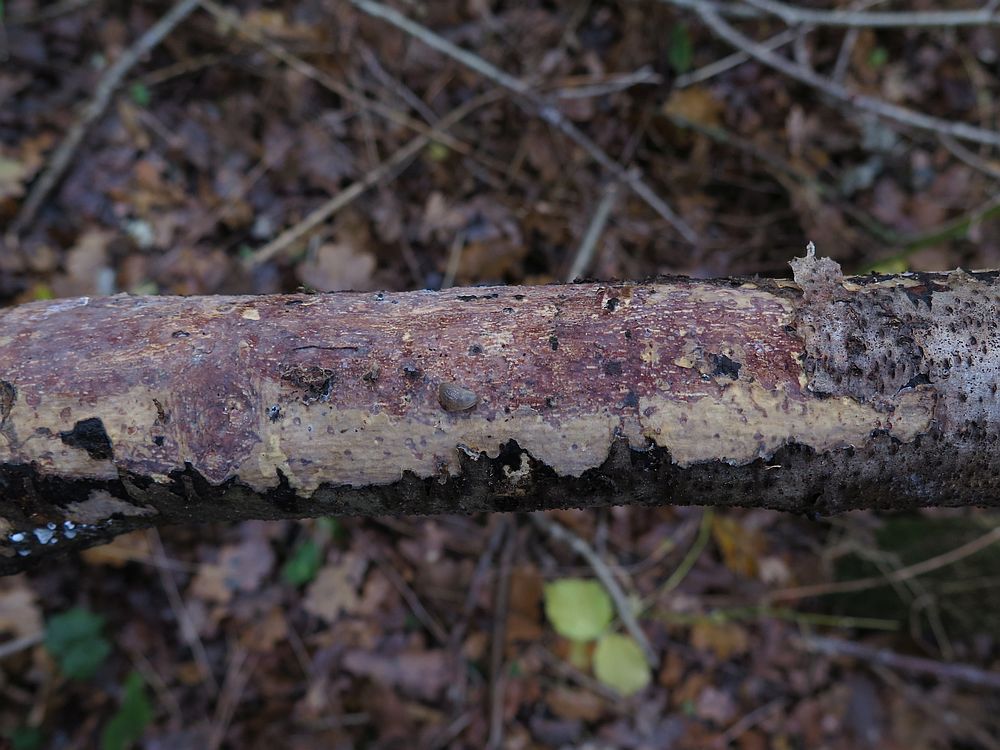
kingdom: Fungi
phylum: Basidiomycota
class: Agaricomycetes
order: Corticiales
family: Vuilleminiaceae
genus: Vuilleminia
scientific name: Vuilleminia comedens
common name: almindelig barksprænger
